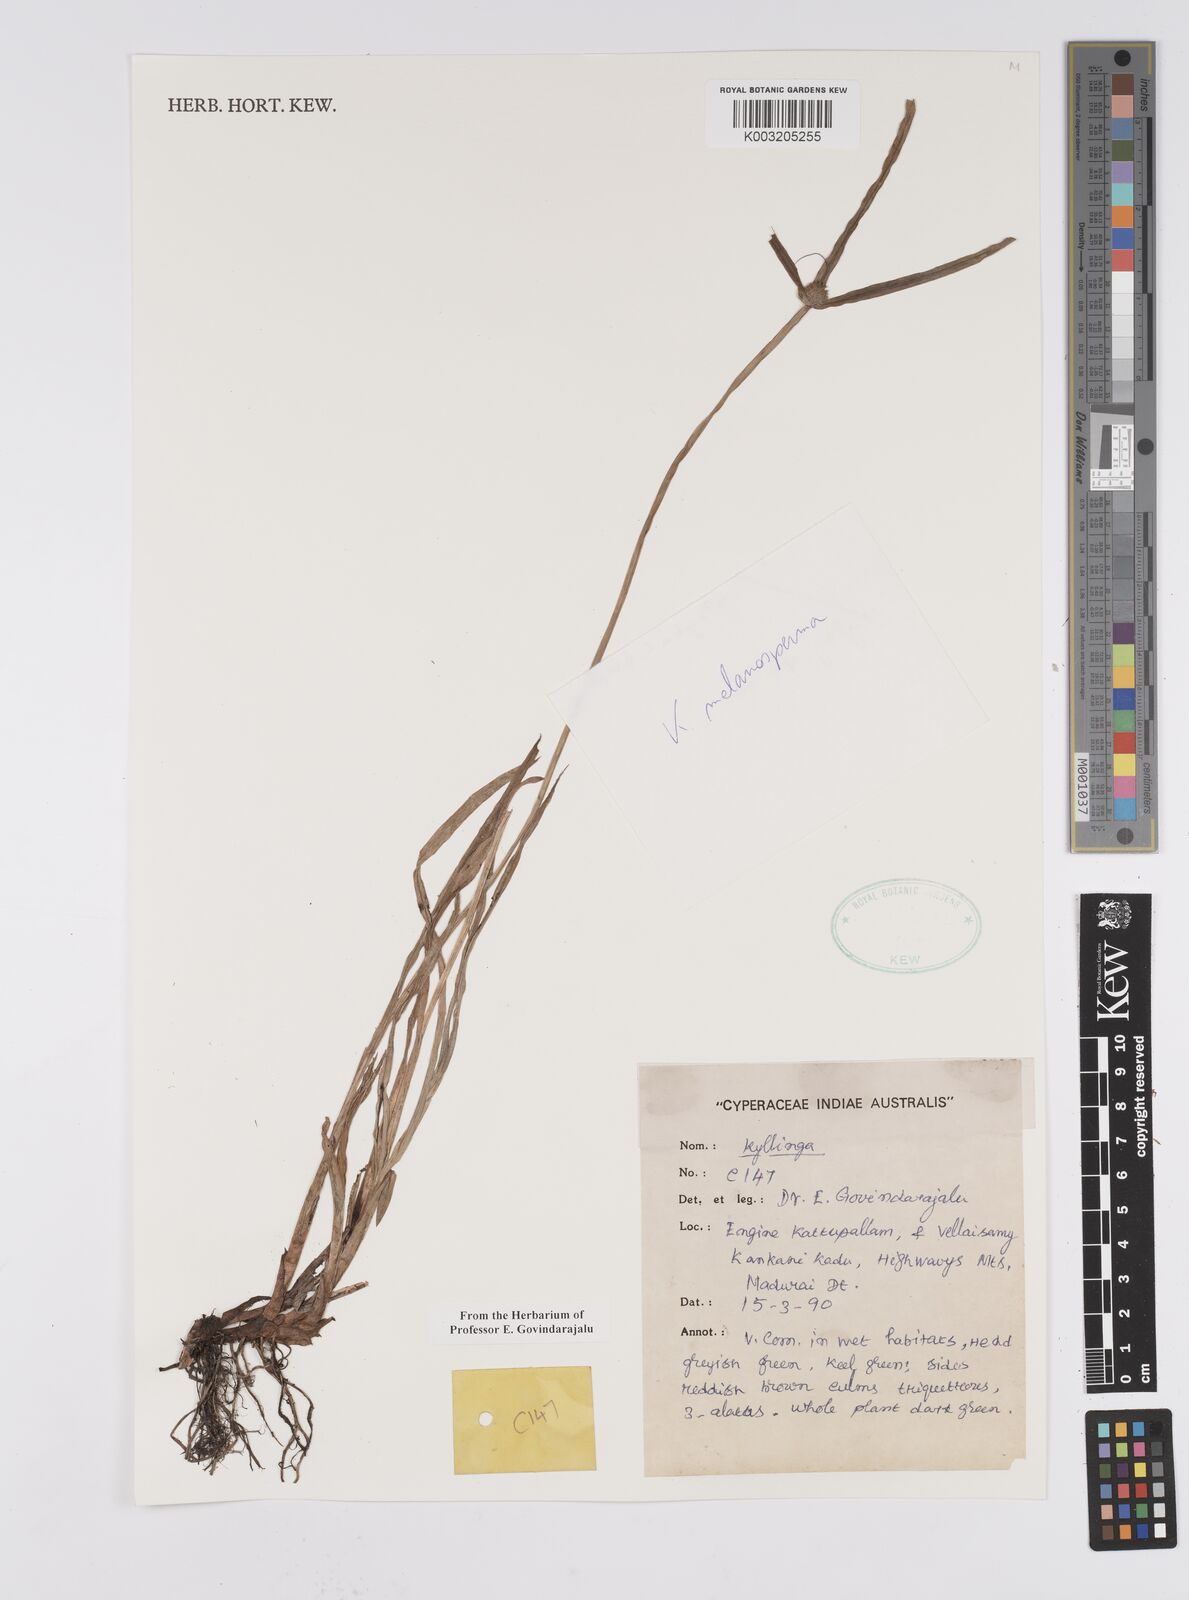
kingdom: Plantae
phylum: Tracheophyta
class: Liliopsida
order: Poales
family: Cyperaceae
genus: Cyperus
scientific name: Cyperus melanospermus
